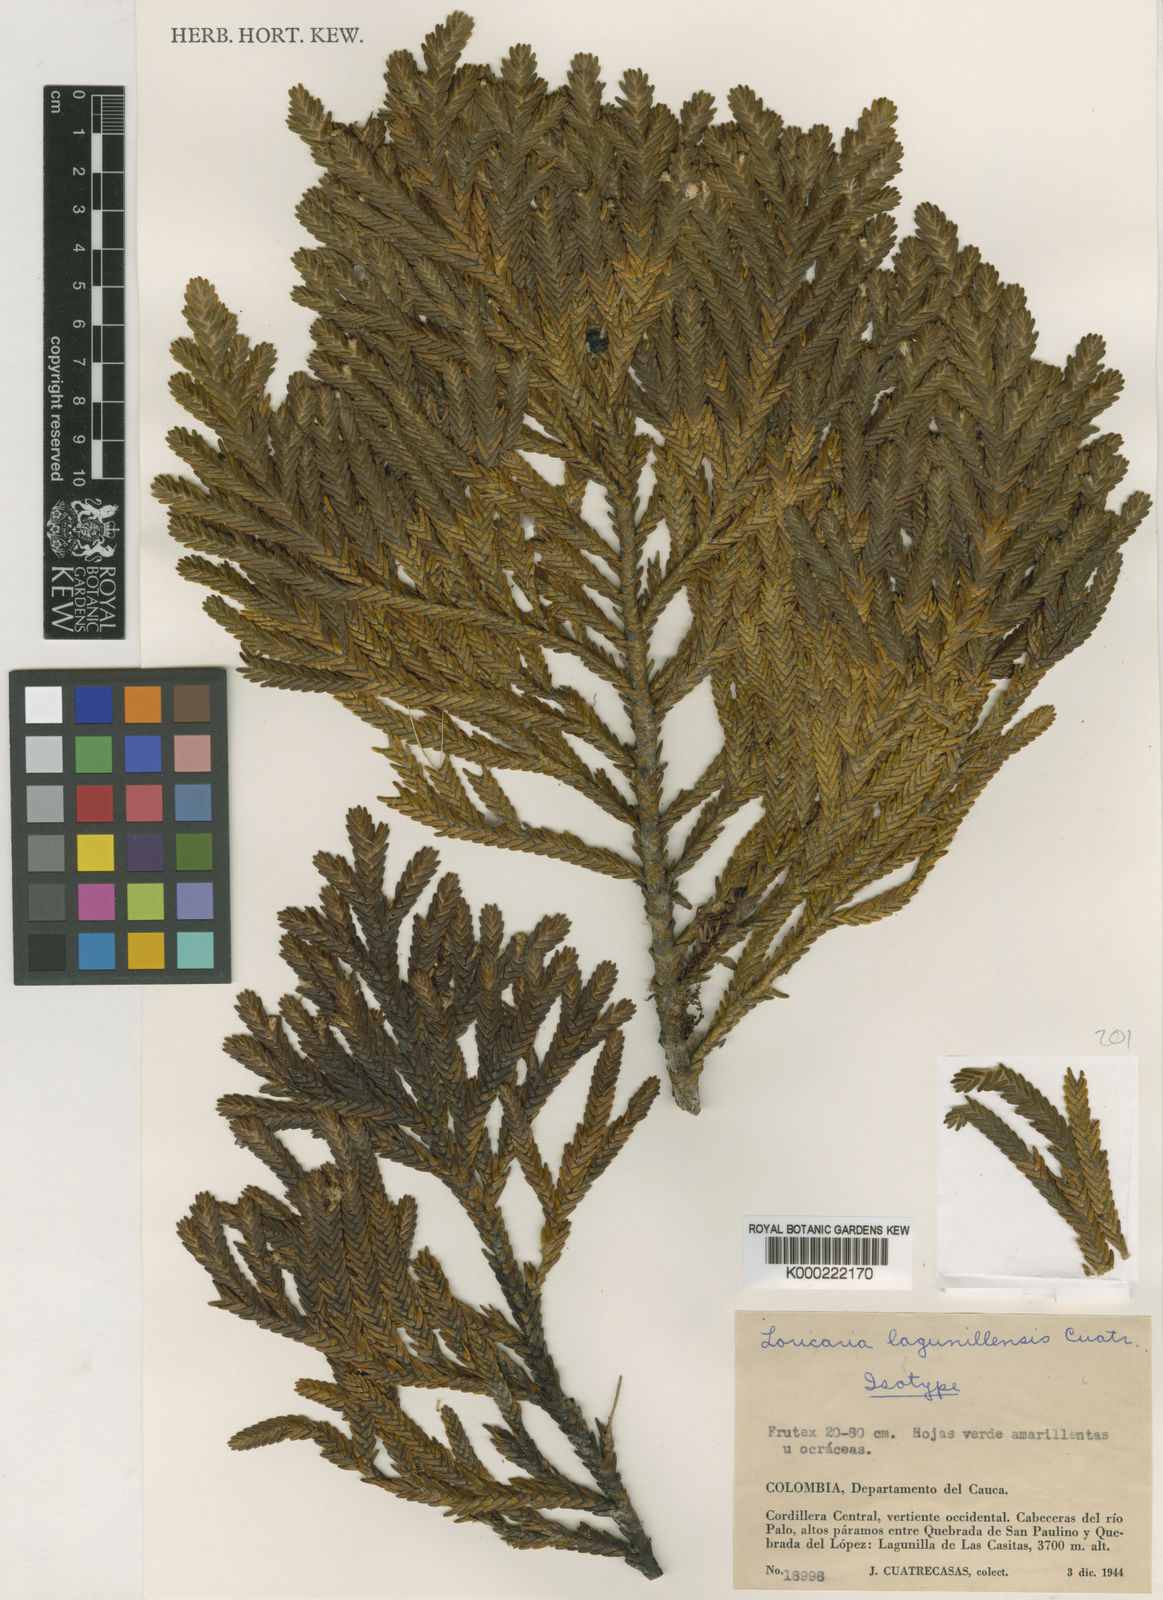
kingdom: Plantae
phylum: Tracheophyta
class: Magnoliopsida
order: Asterales
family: Asteraceae
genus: Andicolea
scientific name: Andicolea lagunillensis
